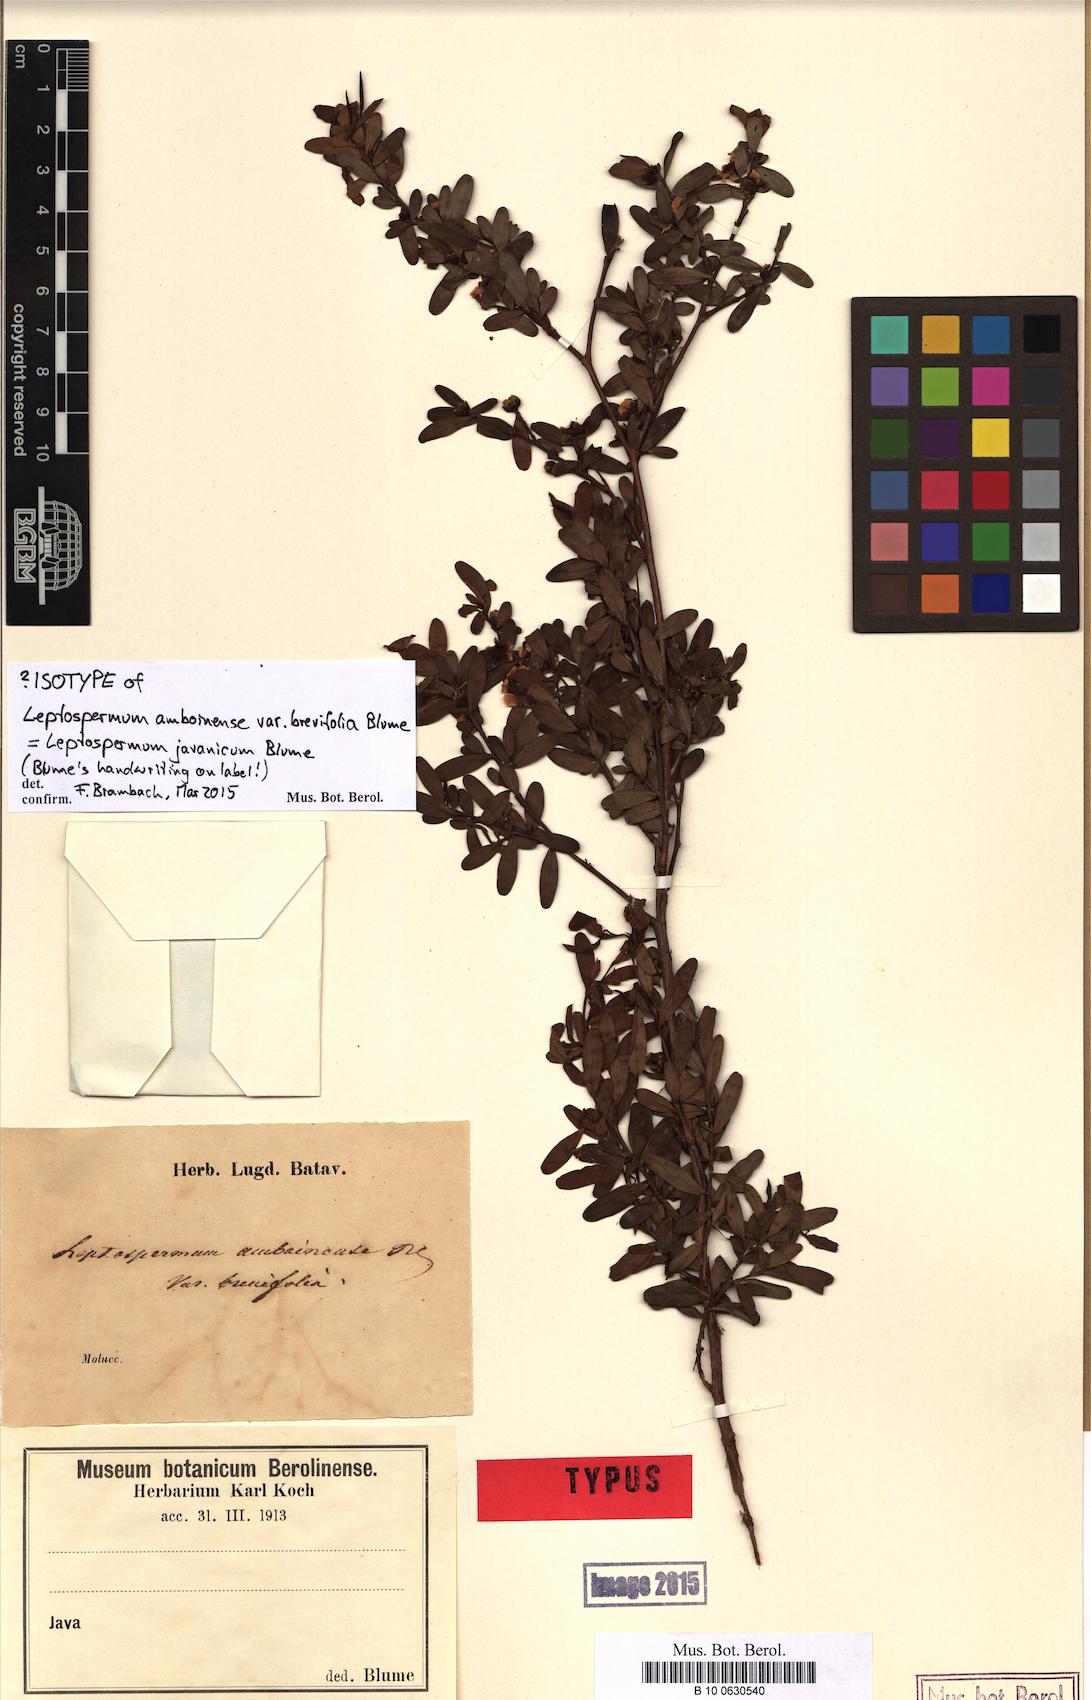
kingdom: Plantae
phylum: Tracheophyta
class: Magnoliopsida
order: Myrtales
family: Myrtaceae
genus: Leptospermum
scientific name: Leptospermum javanicum
